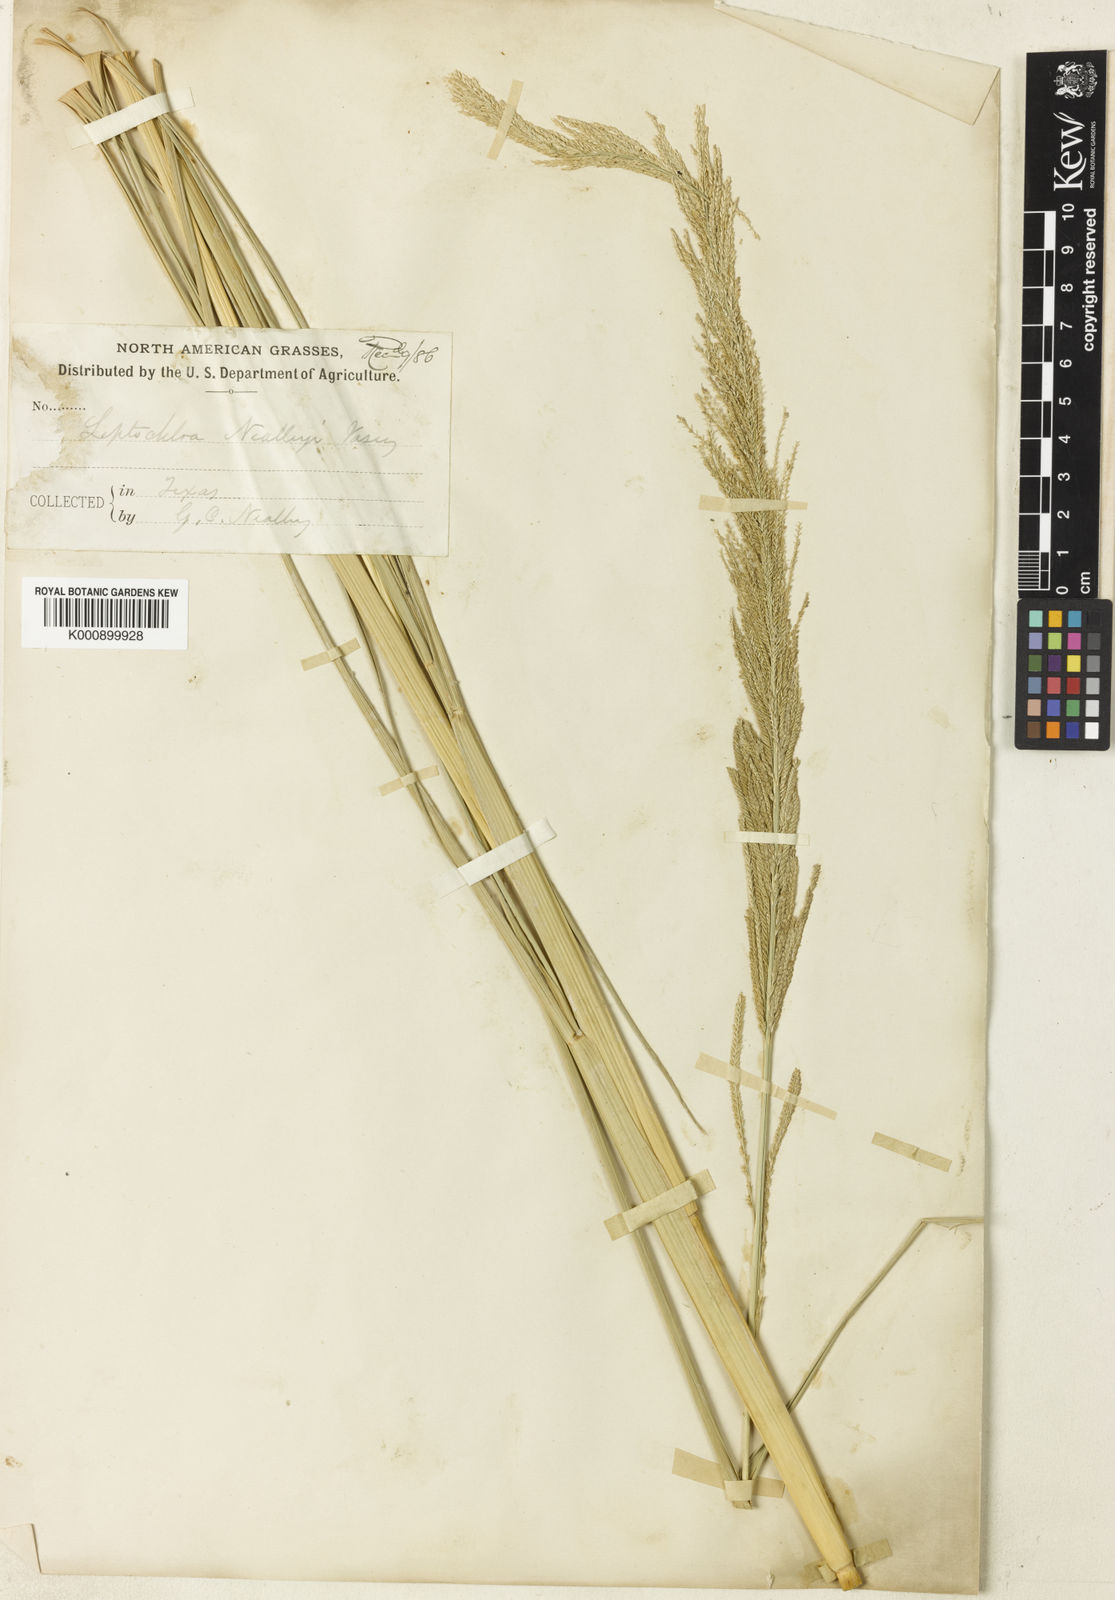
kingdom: Plantae
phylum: Tracheophyta
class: Liliopsida
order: Poales
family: Poaceae
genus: Leptochloa
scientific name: Leptochloa nealleyi
